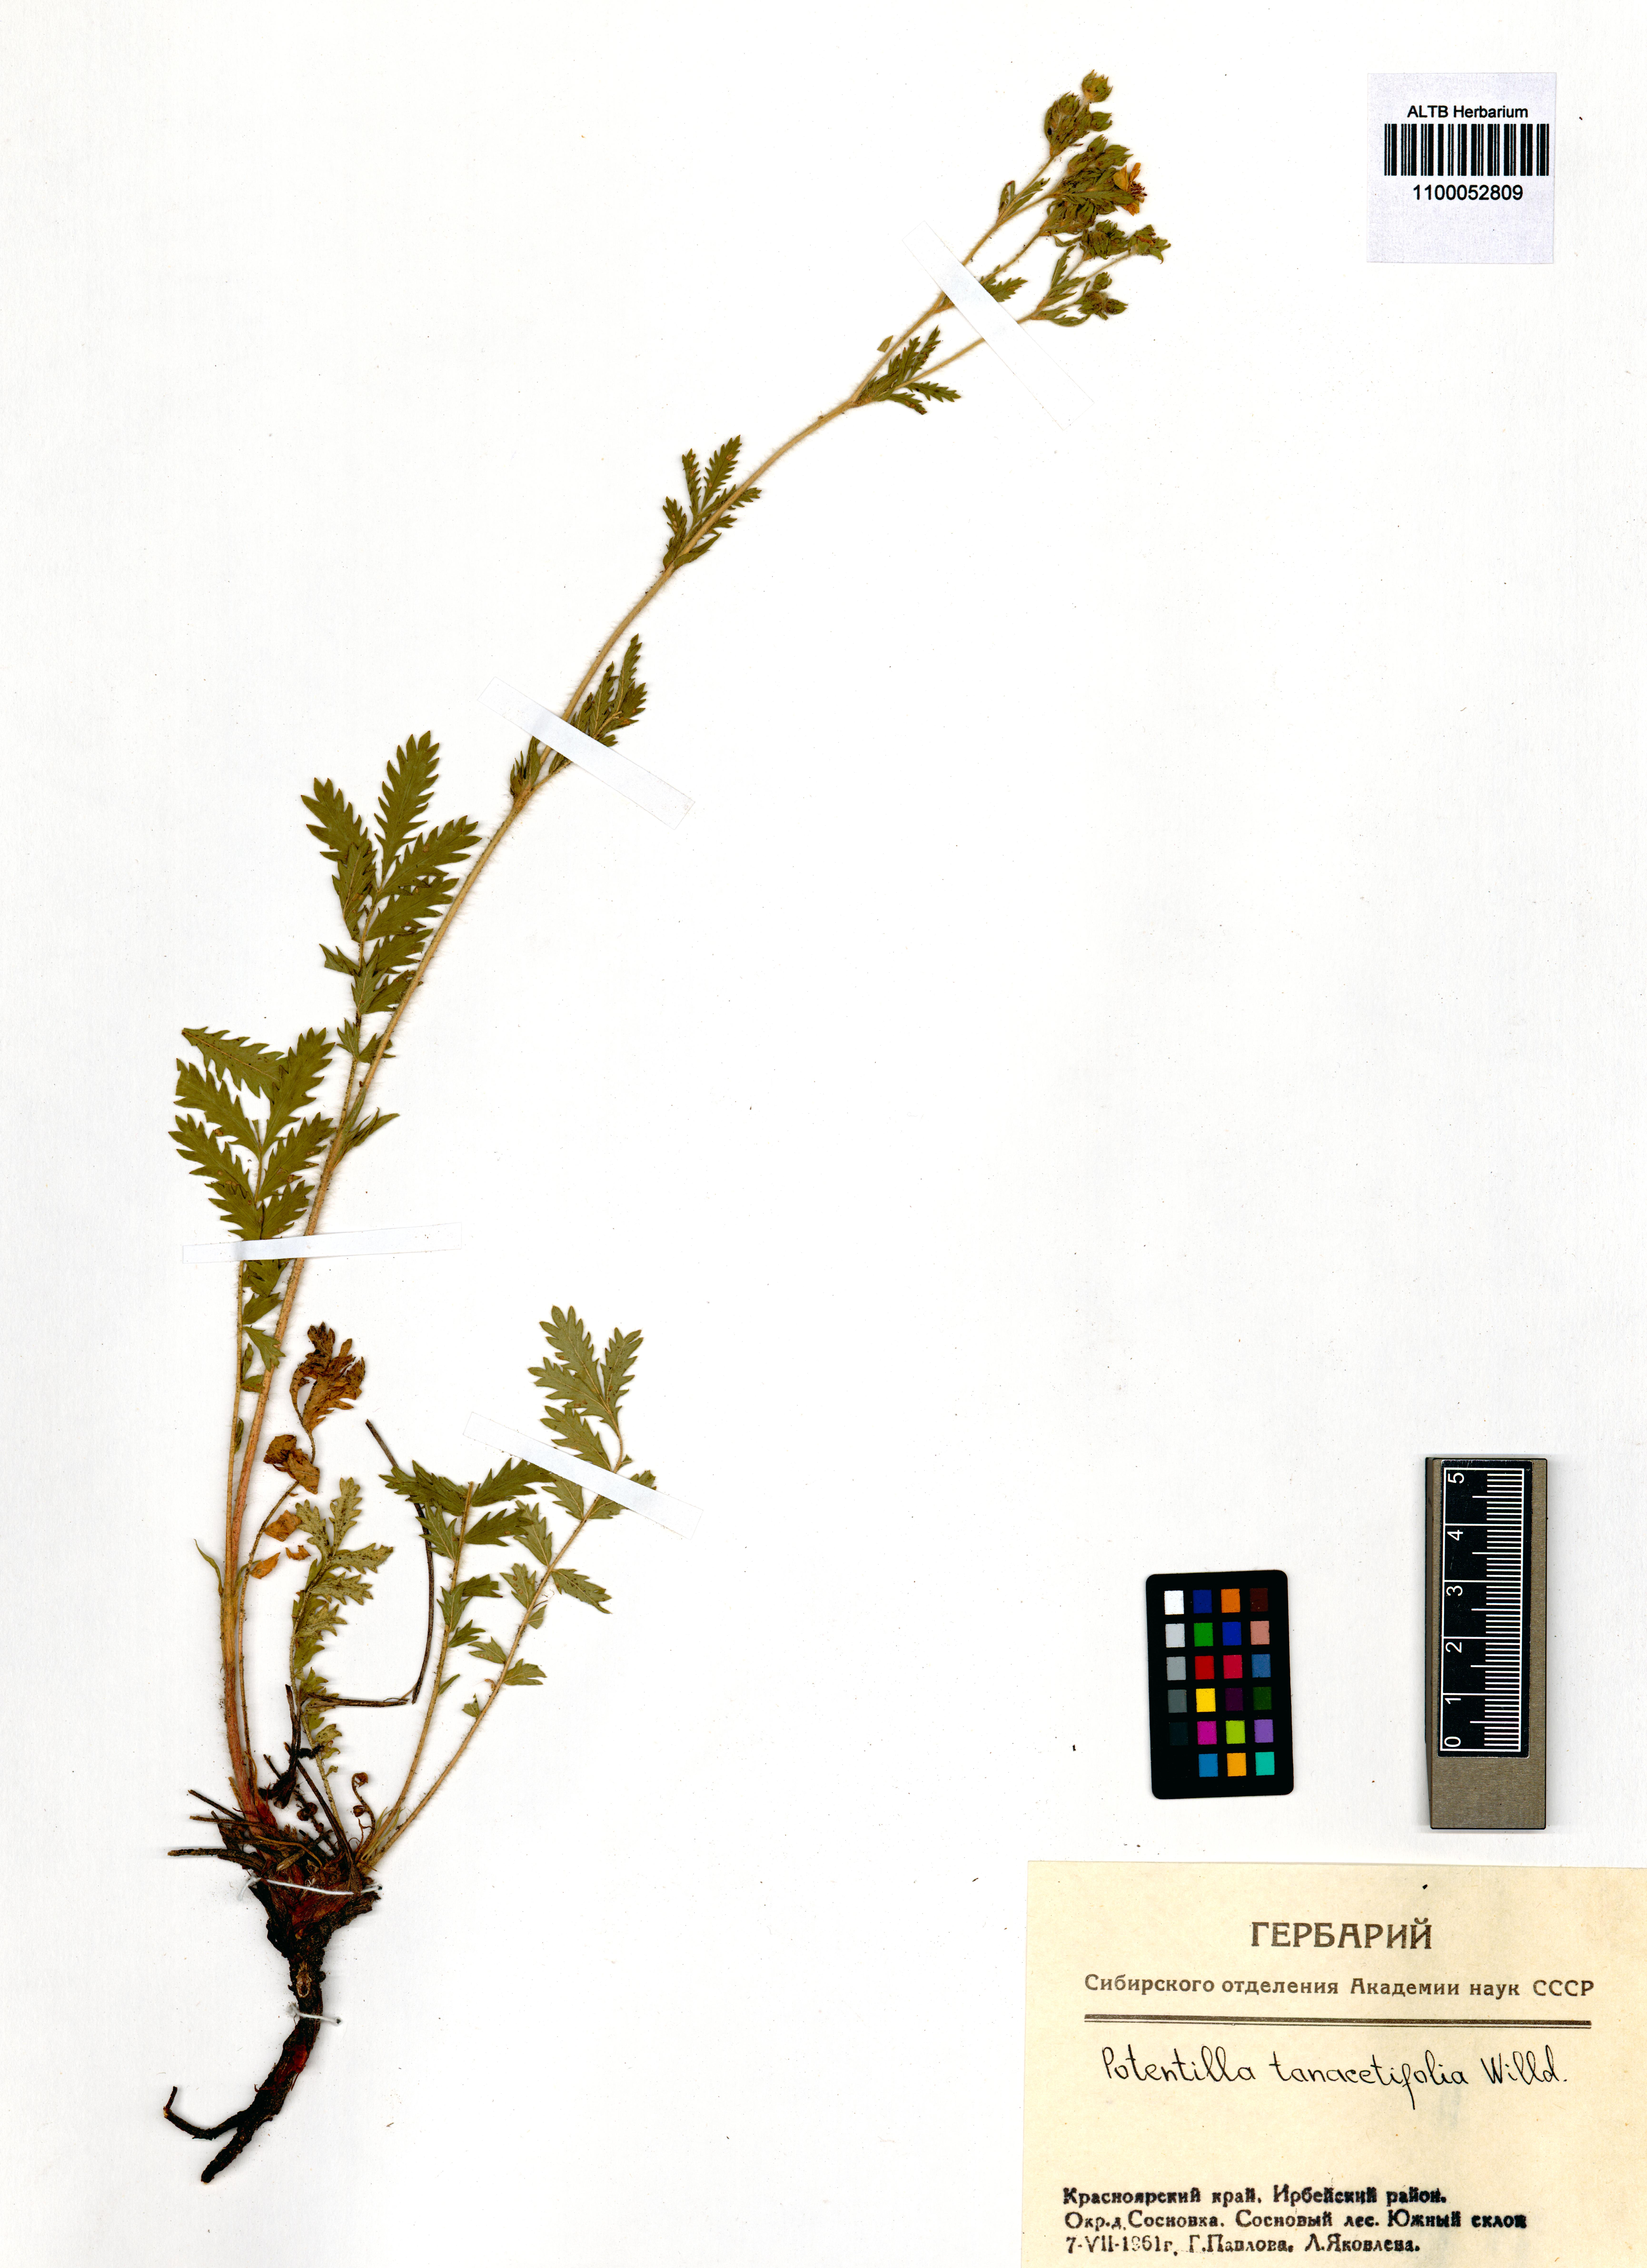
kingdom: Plantae
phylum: Tracheophyta
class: Magnoliopsida
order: Rosales
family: Rosaceae
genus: Potentilla
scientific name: Potentilla tanacetifolia
